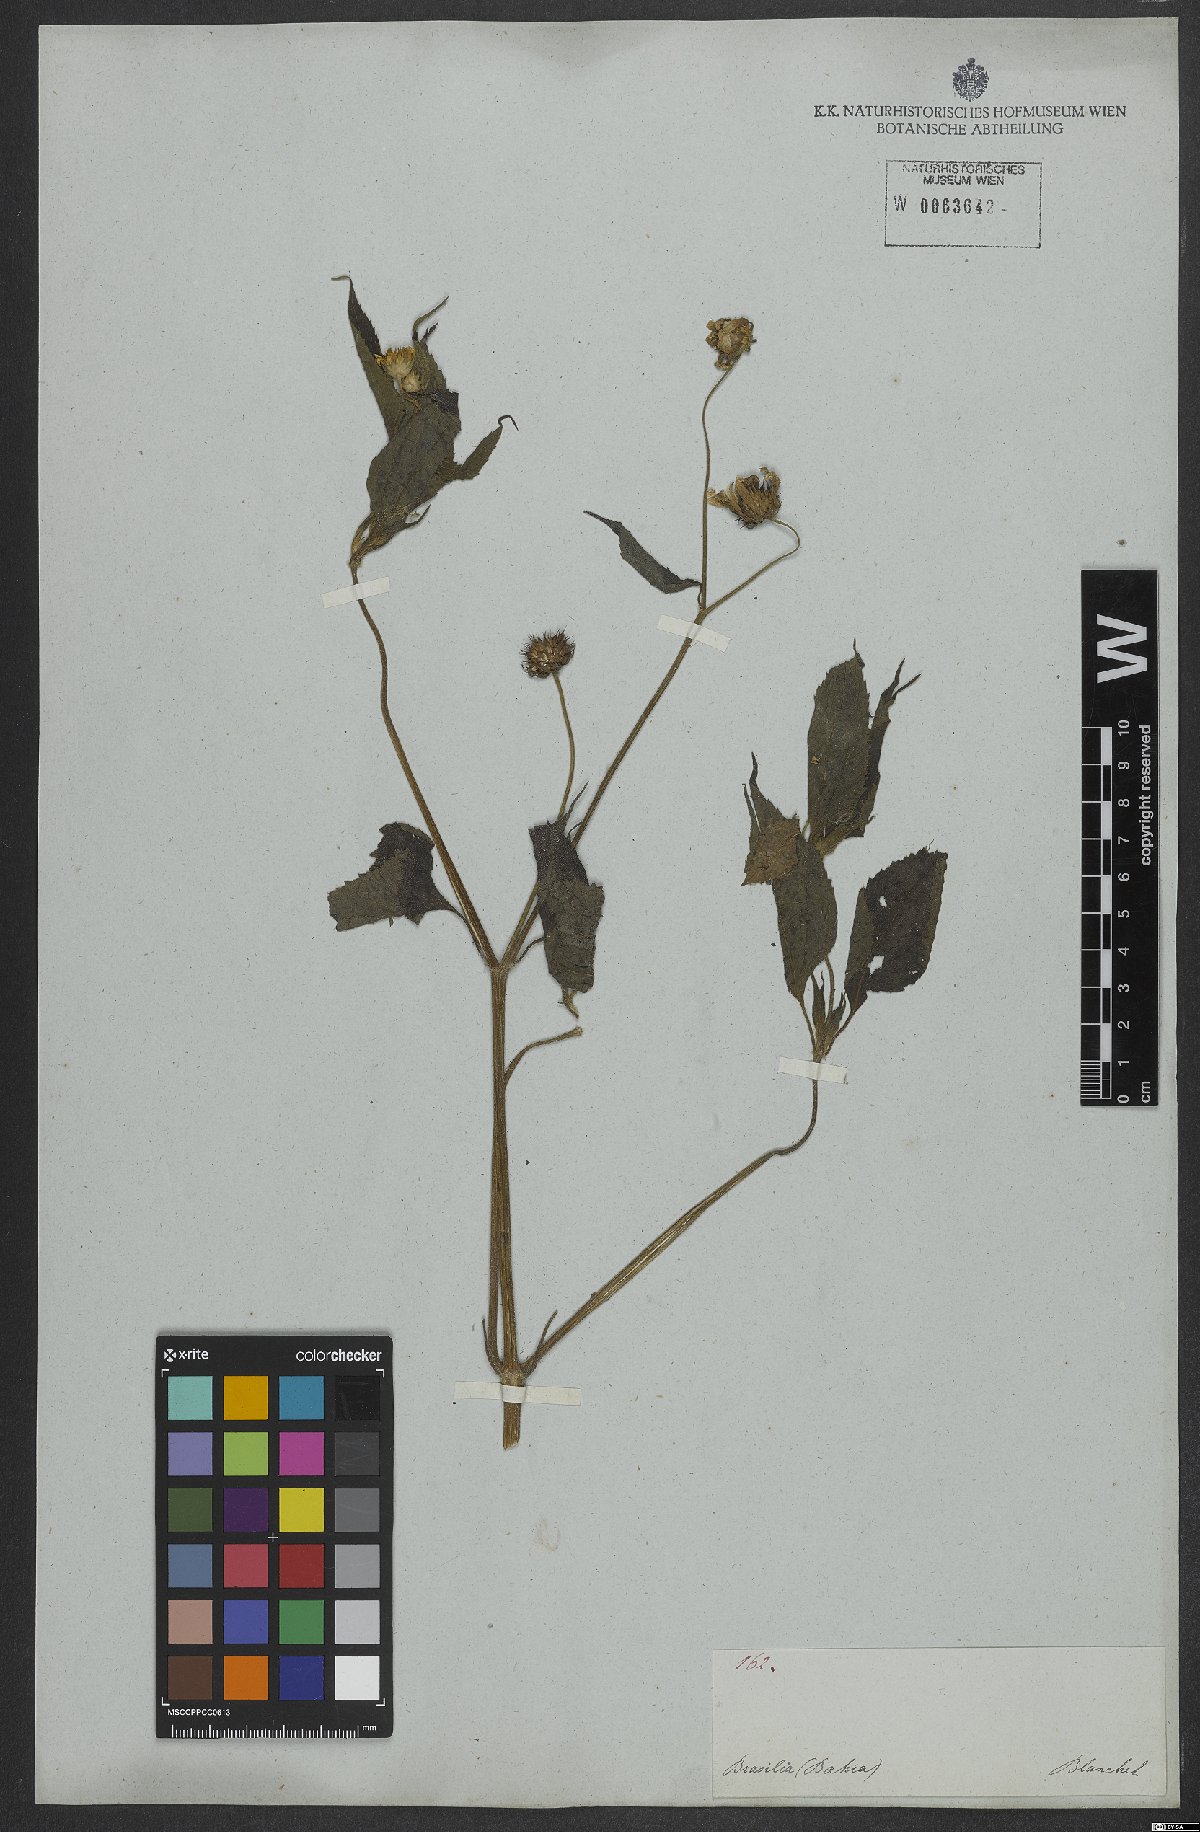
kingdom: Plantae
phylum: Tracheophyta
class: Magnoliopsida
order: Asterales
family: Asteraceae
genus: Melanthera
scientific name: Melanthera
